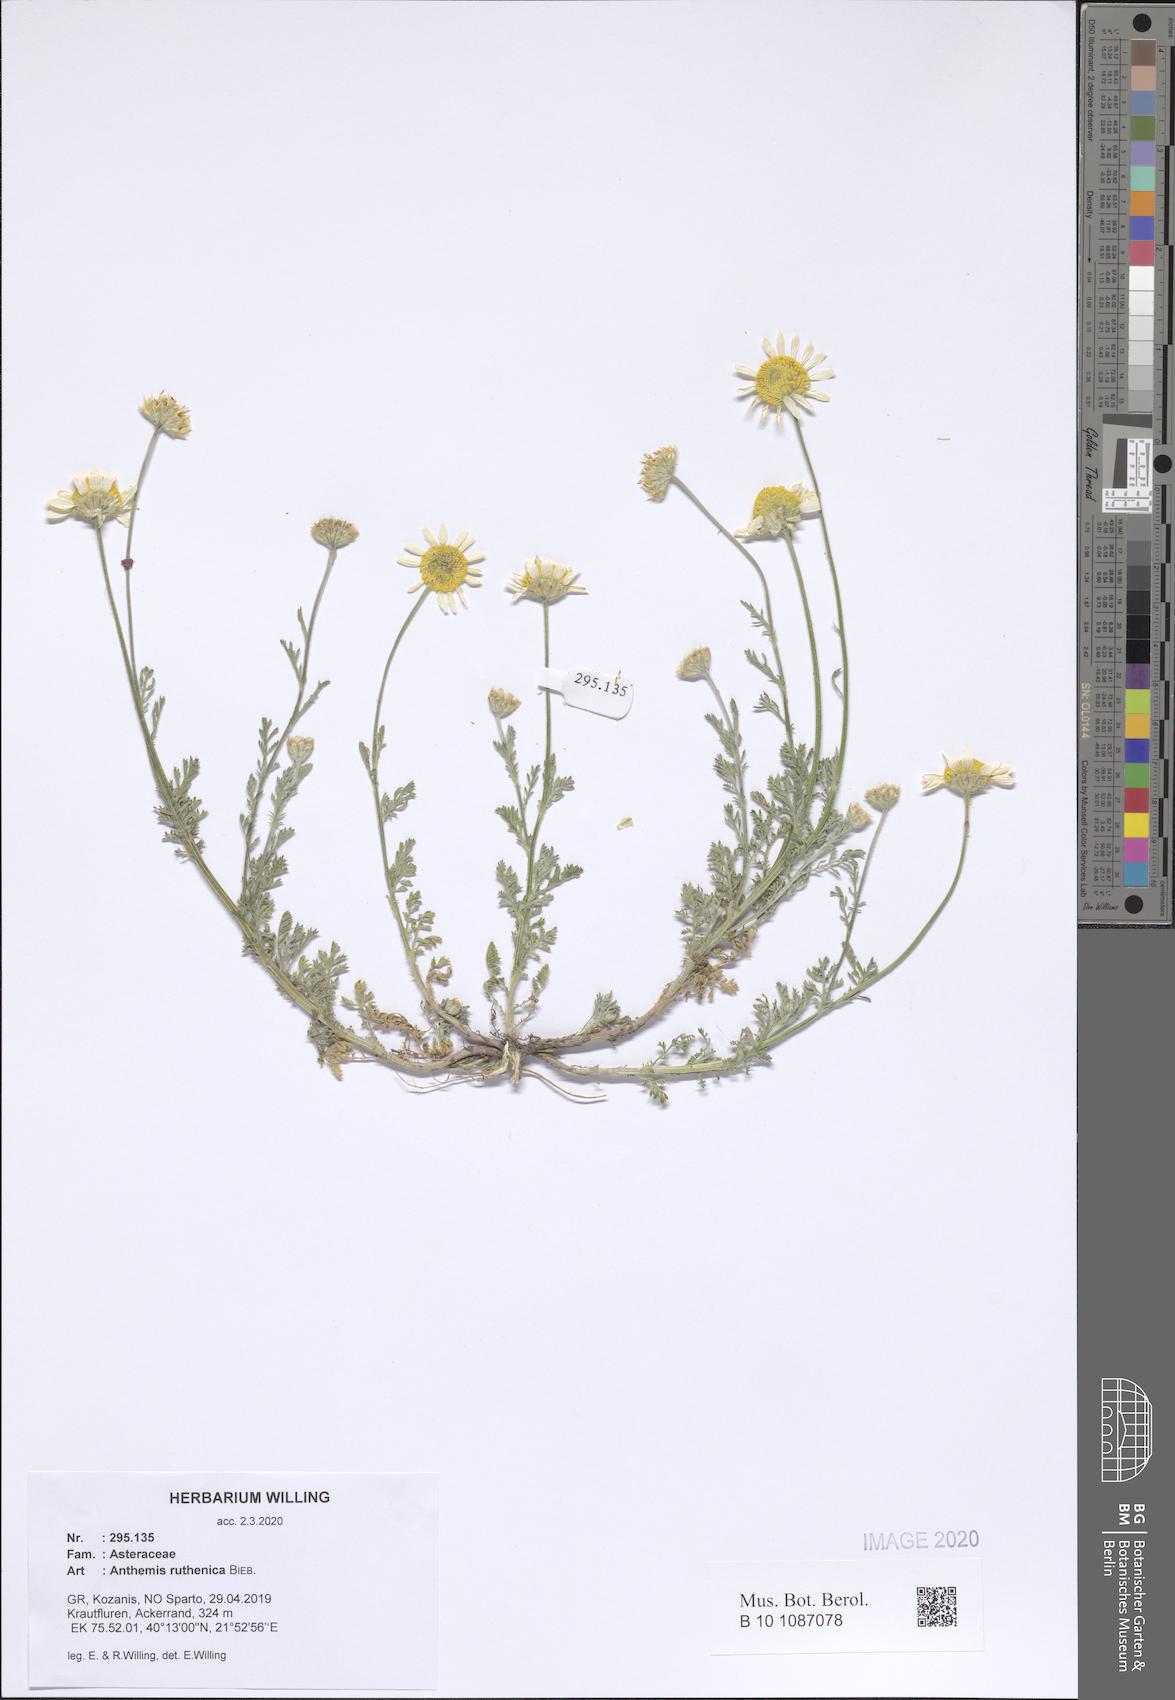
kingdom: Plantae
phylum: Tracheophyta
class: Magnoliopsida
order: Asterales
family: Asteraceae
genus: Anthemis
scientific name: Anthemis ruthenica
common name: Eastern chamomile
